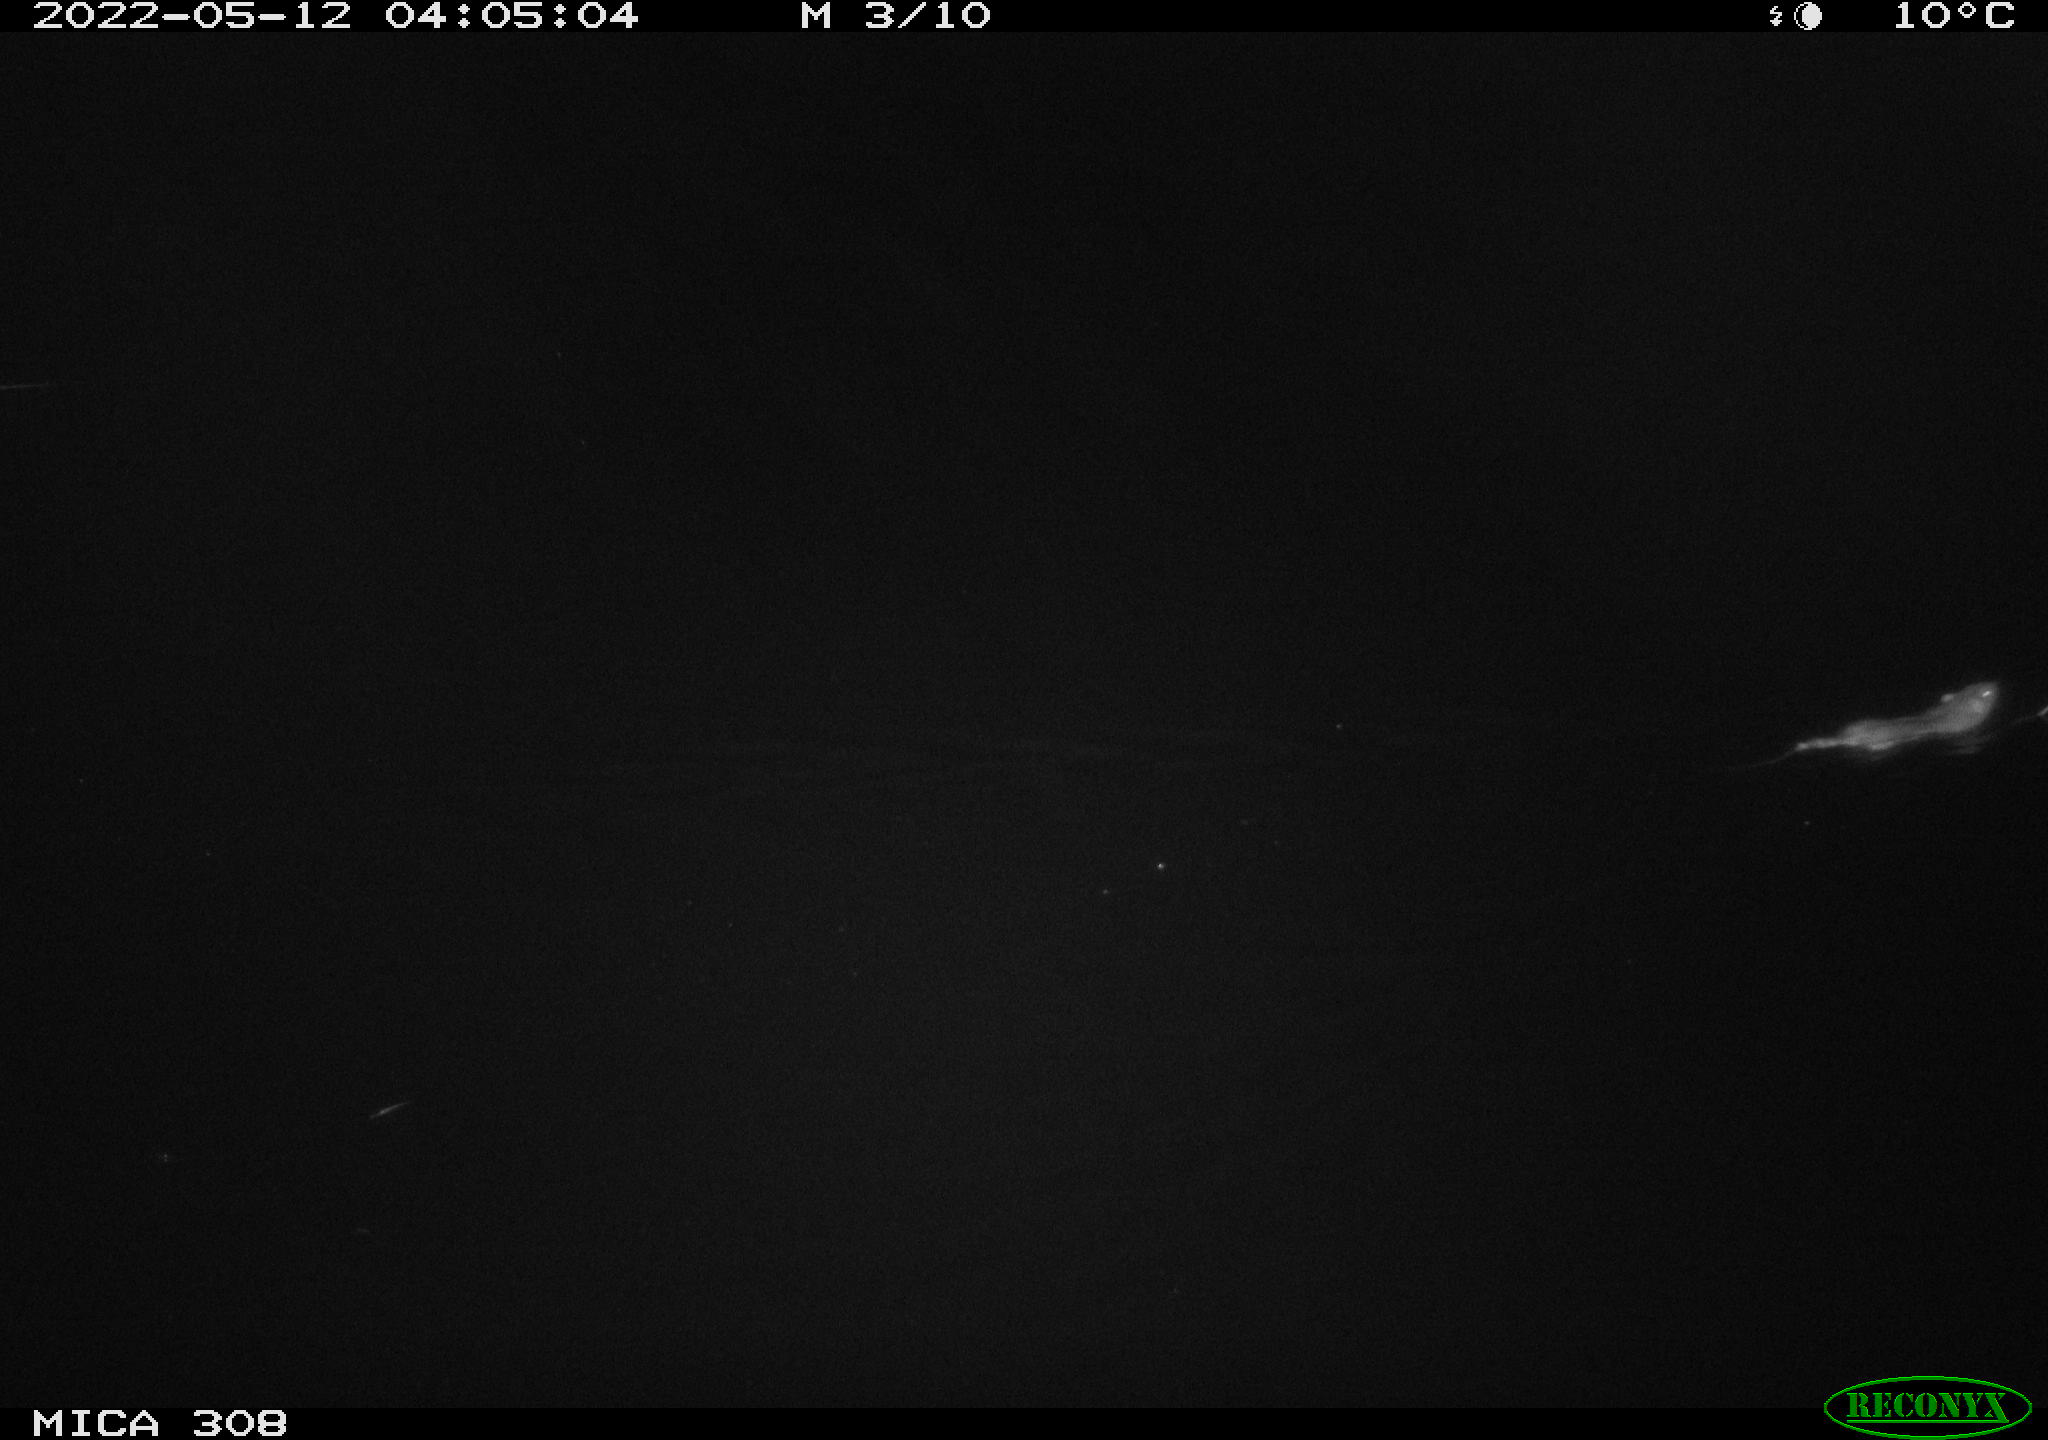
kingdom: Animalia
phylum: Chordata
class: Mammalia
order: Rodentia
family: Muridae
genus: Rattus
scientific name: Rattus norvegicus
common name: Brown rat
